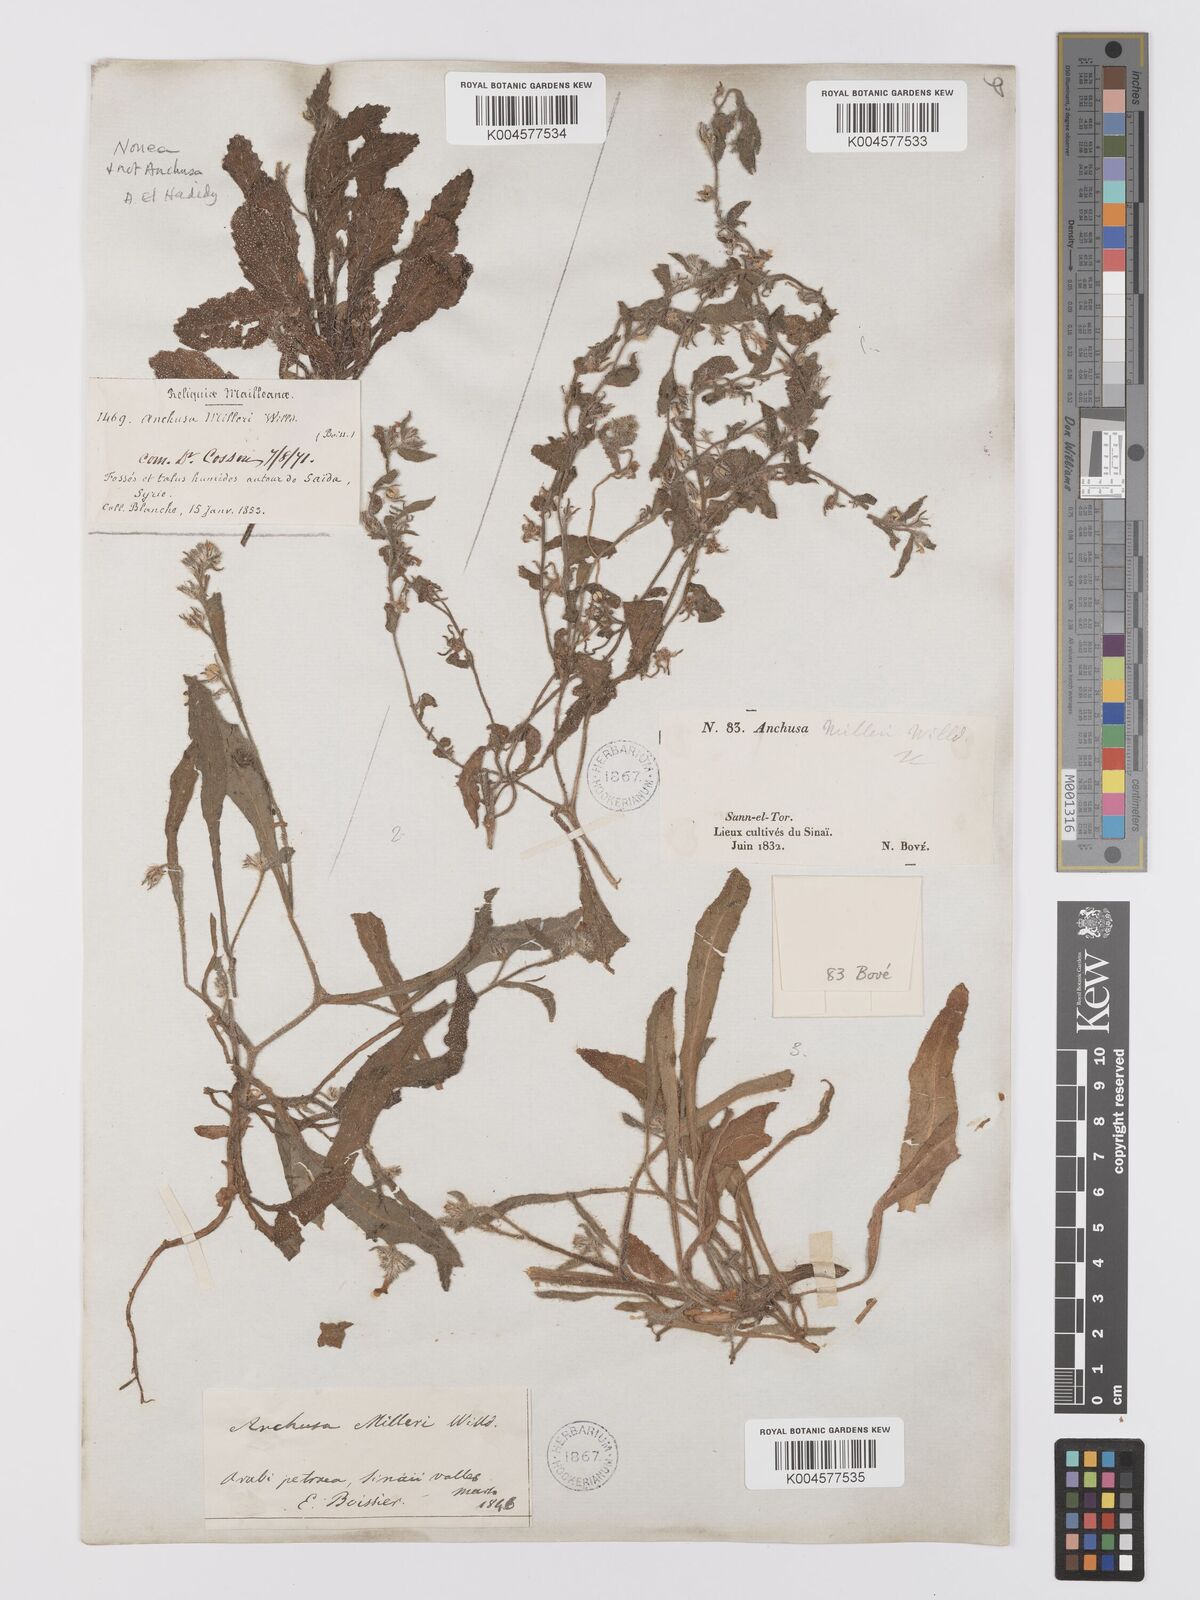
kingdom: Plantae
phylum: Tracheophyta
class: Magnoliopsida
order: Boraginales
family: Boraginaceae
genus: Anchusa
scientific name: Anchusa milleri
